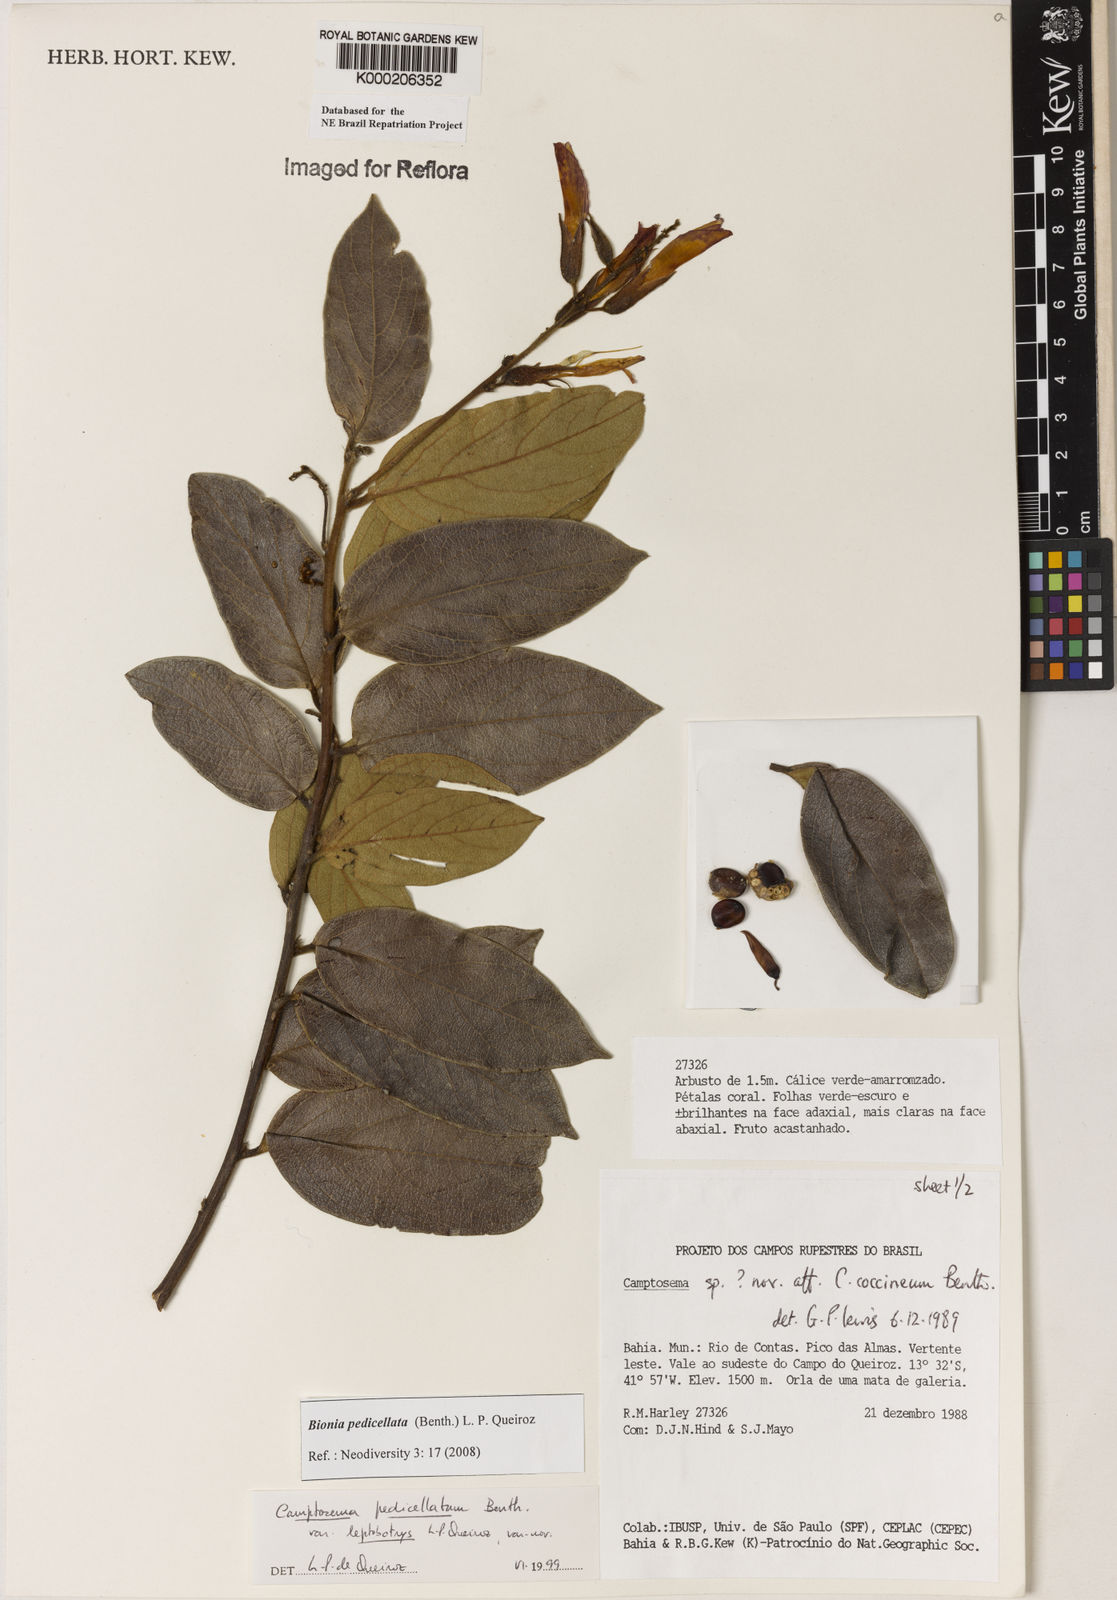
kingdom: Plantae
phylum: Tracheophyta
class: Magnoliopsida
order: Fabales
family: Fabaceae
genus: Camptosema
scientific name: Camptosema pedicellatum
